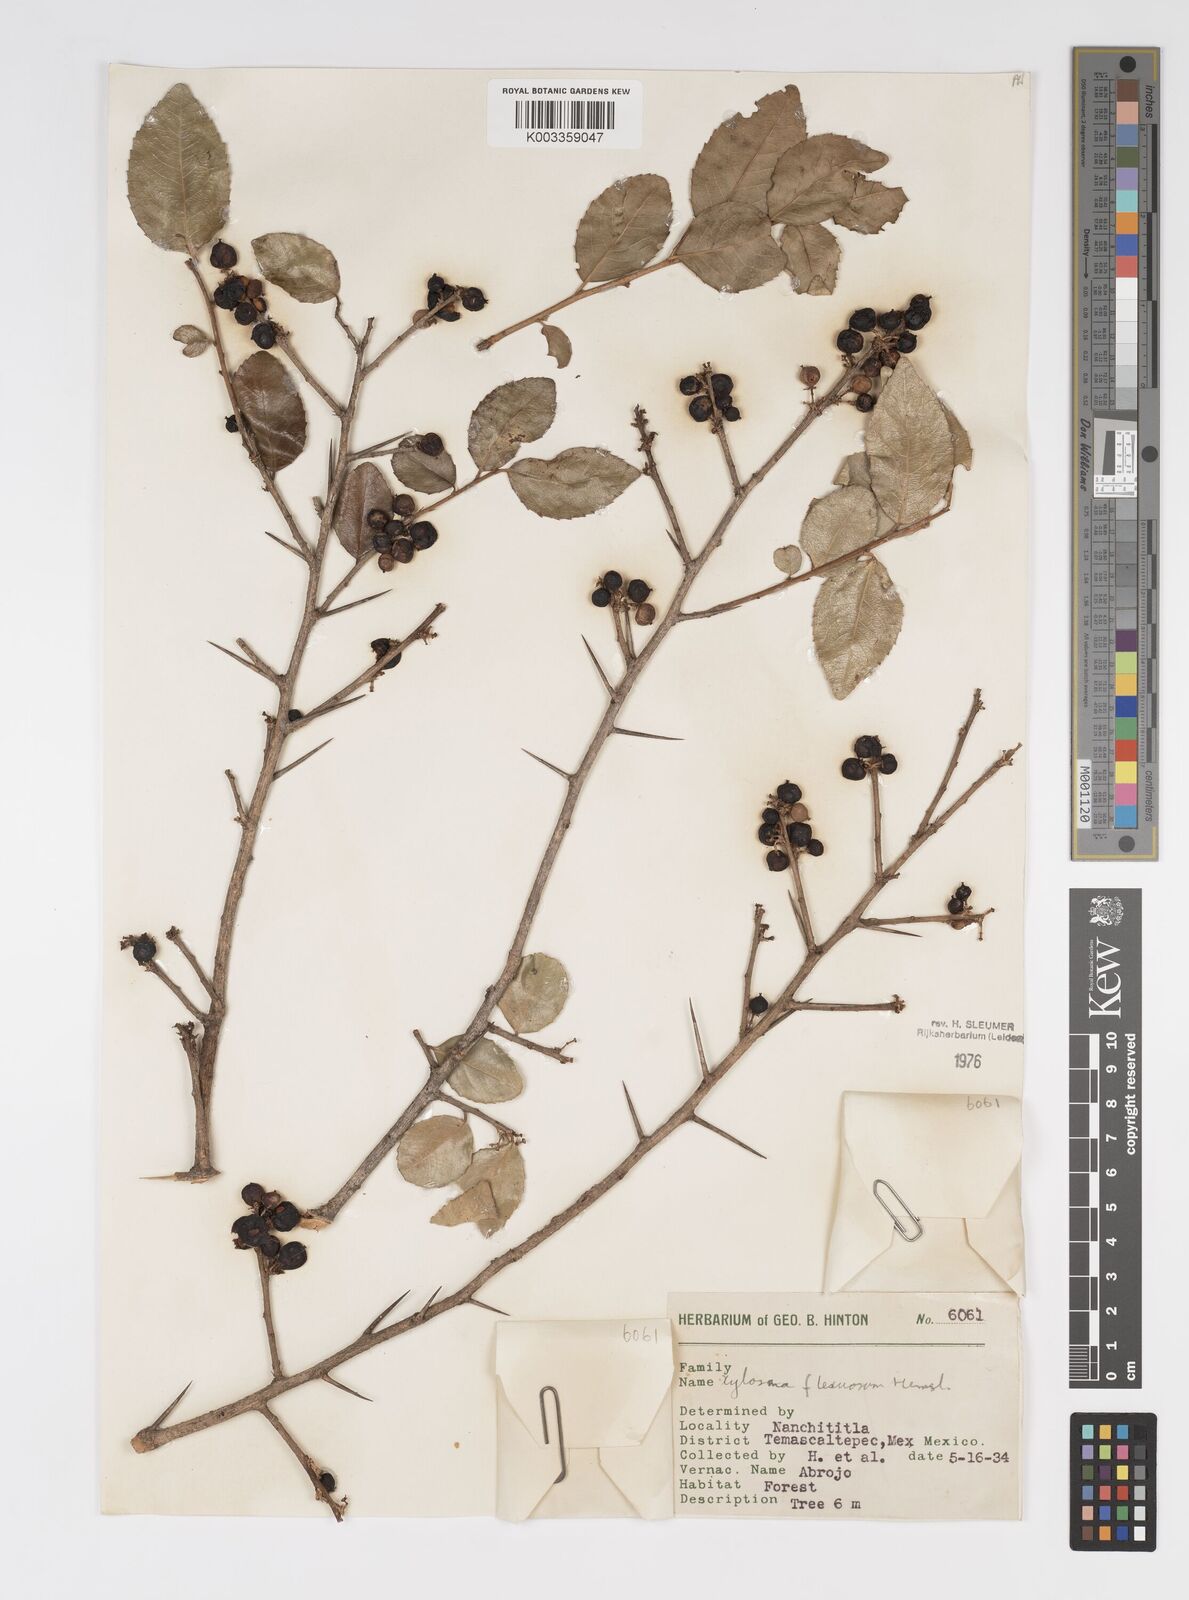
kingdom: Plantae
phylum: Tracheophyta
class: Magnoliopsida
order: Malpighiales
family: Salicaceae
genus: Xylosma
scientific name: Xylosma flexuosa
